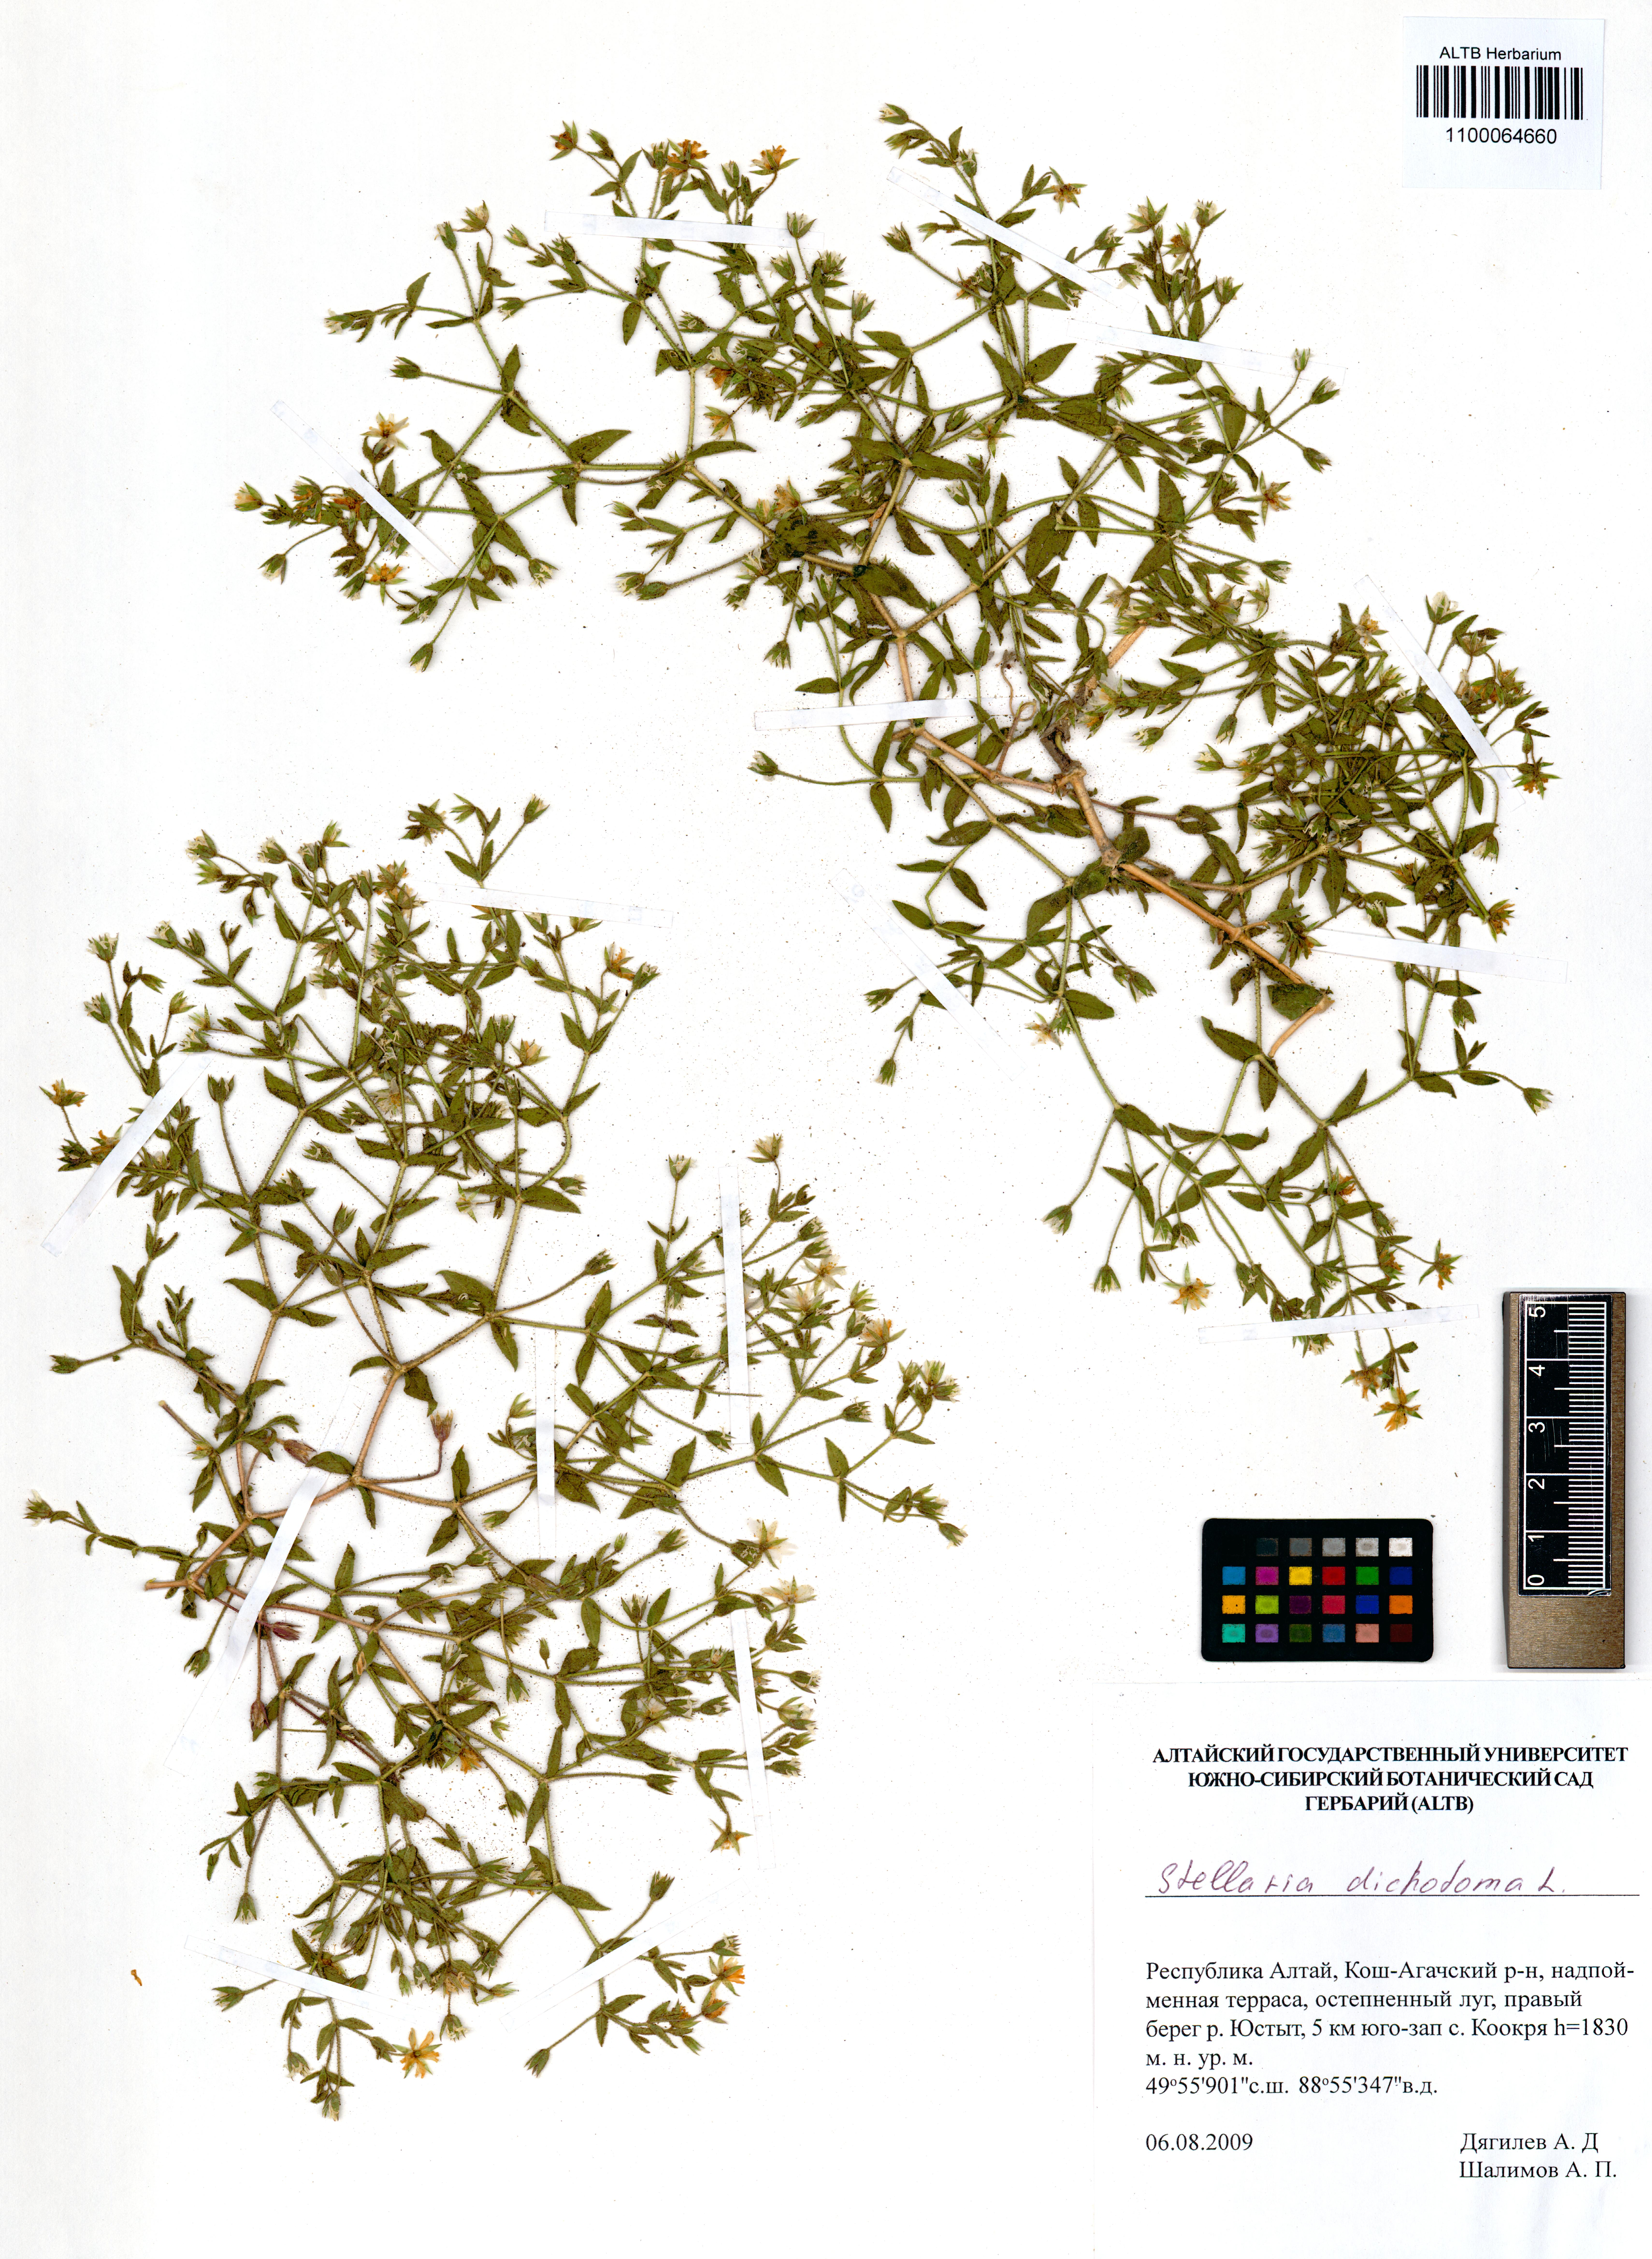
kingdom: Plantae
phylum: Tracheophyta
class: Magnoliopsida
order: Caryophyllales
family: Caryophyllaceae
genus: Mesostemma
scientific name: Mesostemma dichotomum
